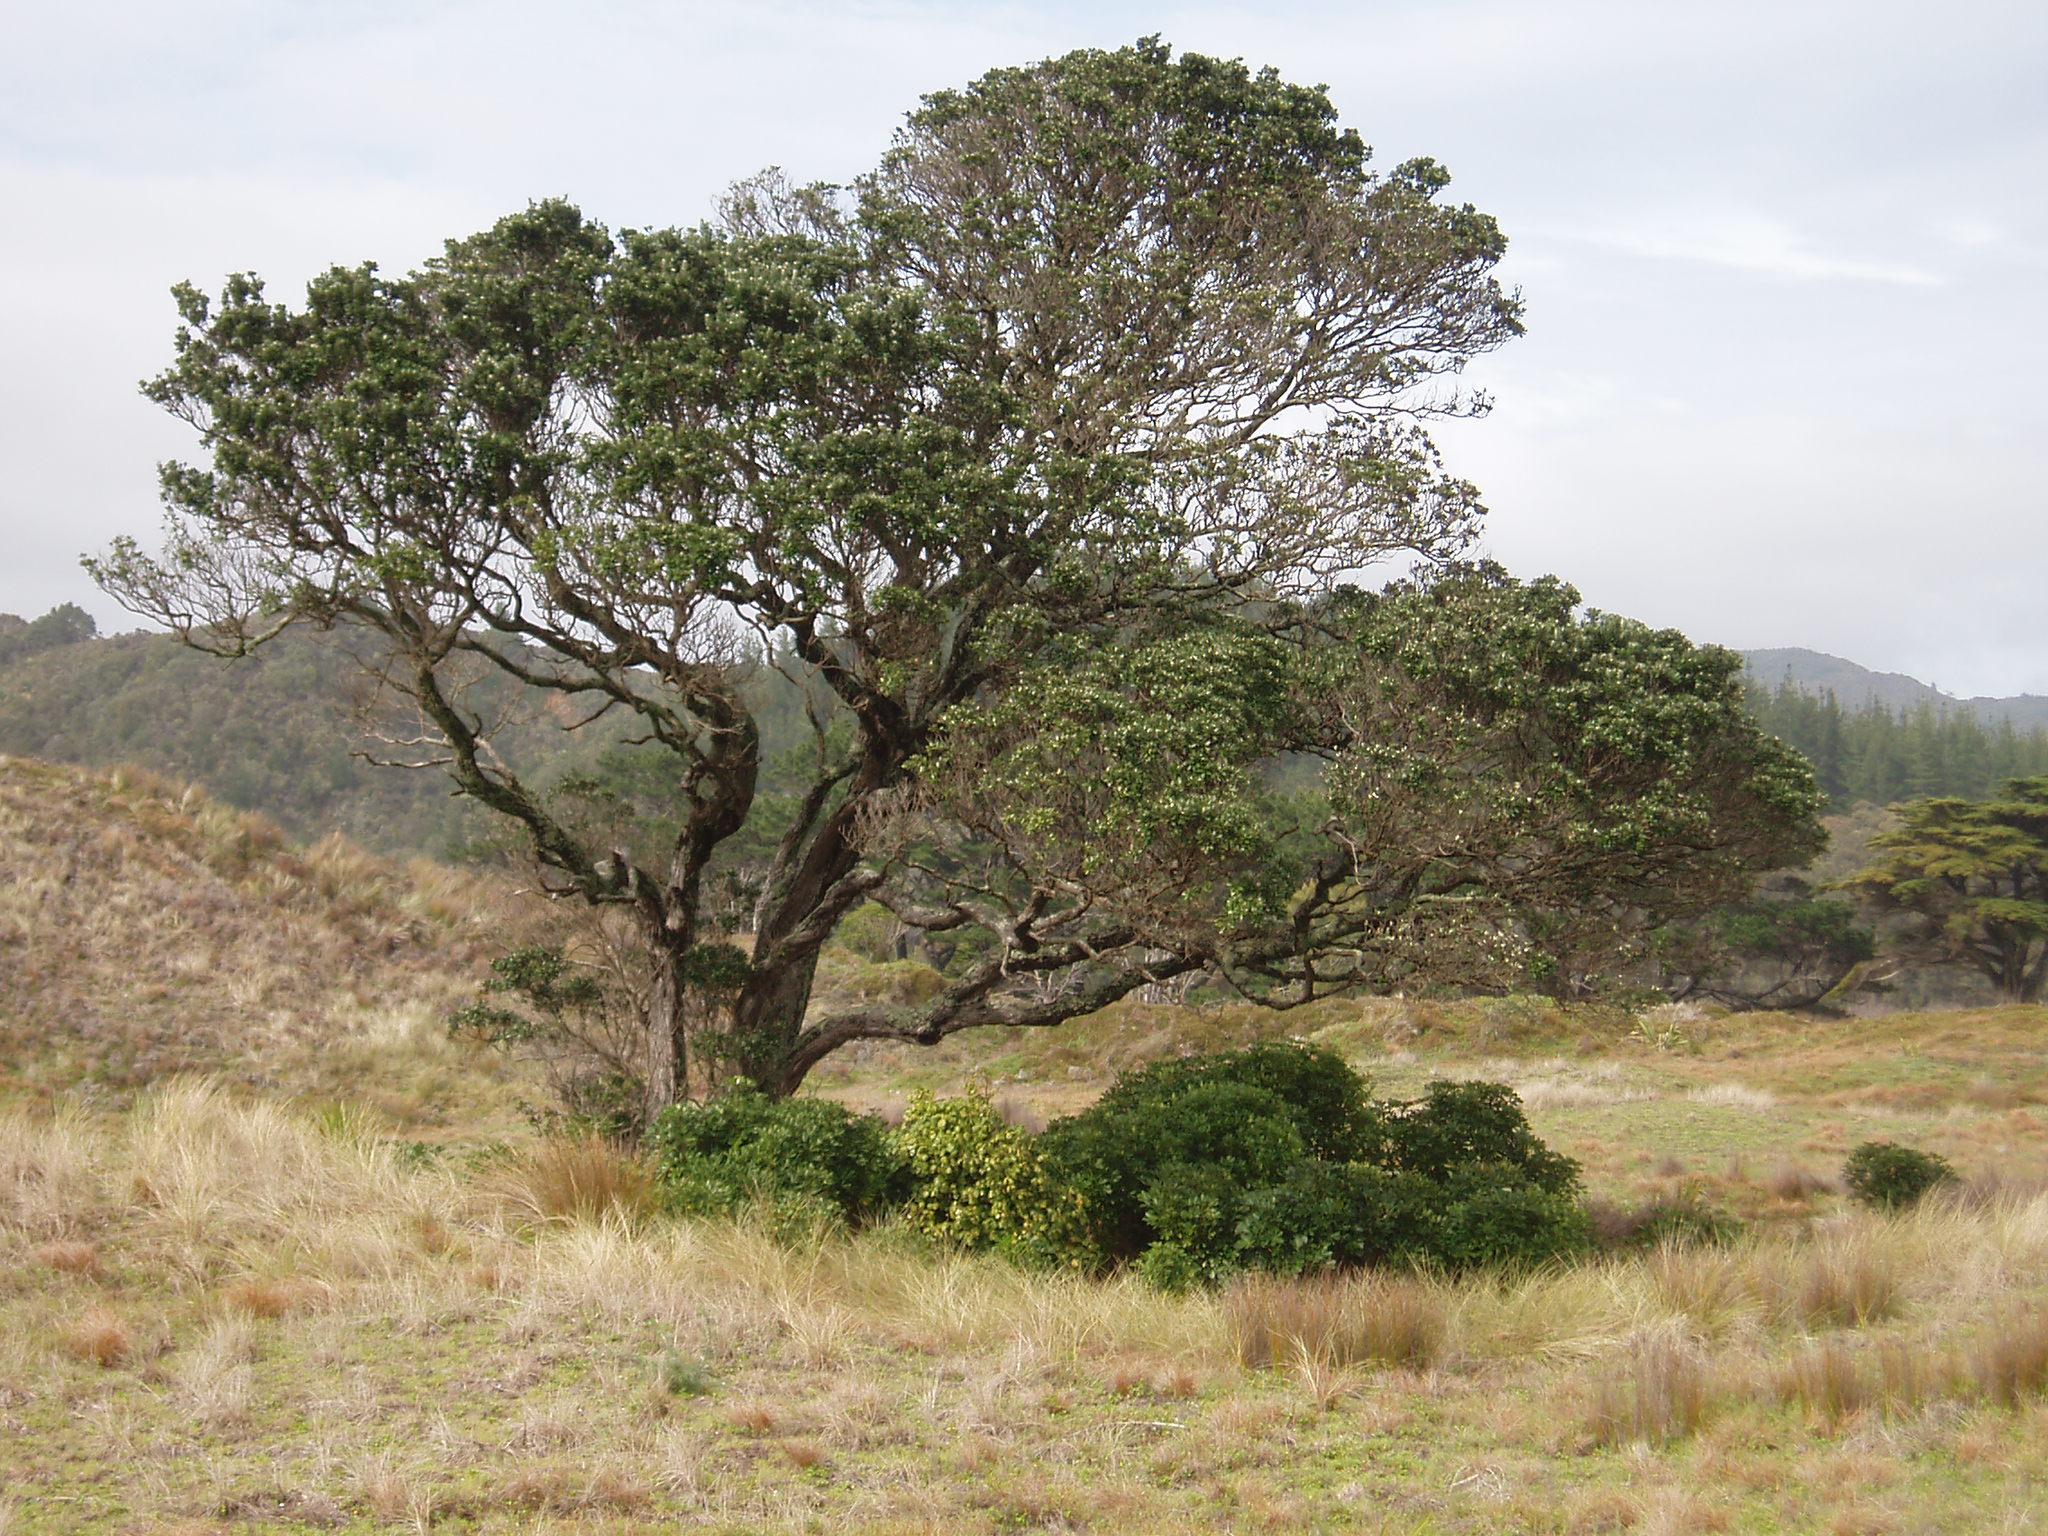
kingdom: Plantae
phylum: Tracheophyta
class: Magnoliopsida
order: Rosales
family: Rosaceae
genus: Rhaphiolepis
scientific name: Rhaphiolepis umbellata
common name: Yedda-hawthorn
